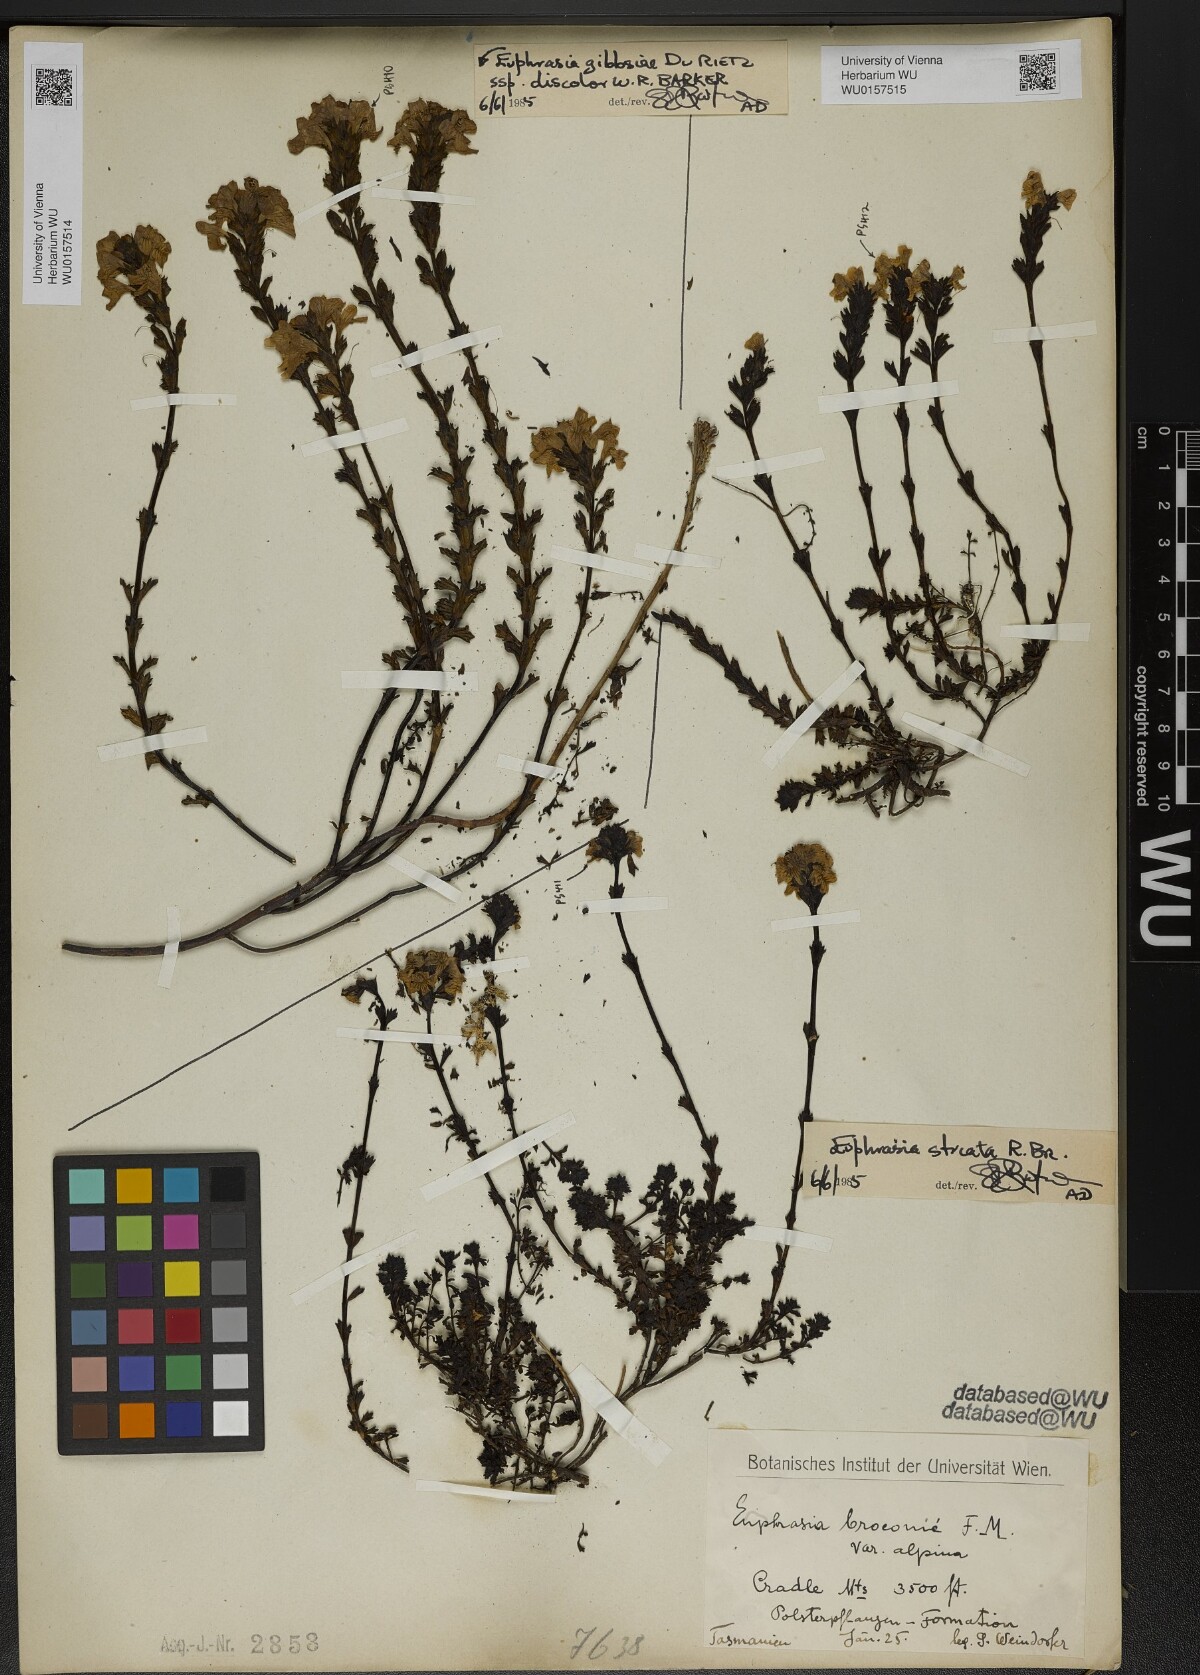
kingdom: Plantae
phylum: Tracheophyta
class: Magnoliopsida
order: Lamiales
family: Orobanchaceae
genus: Euphrasia
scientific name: Euphrasia striata
